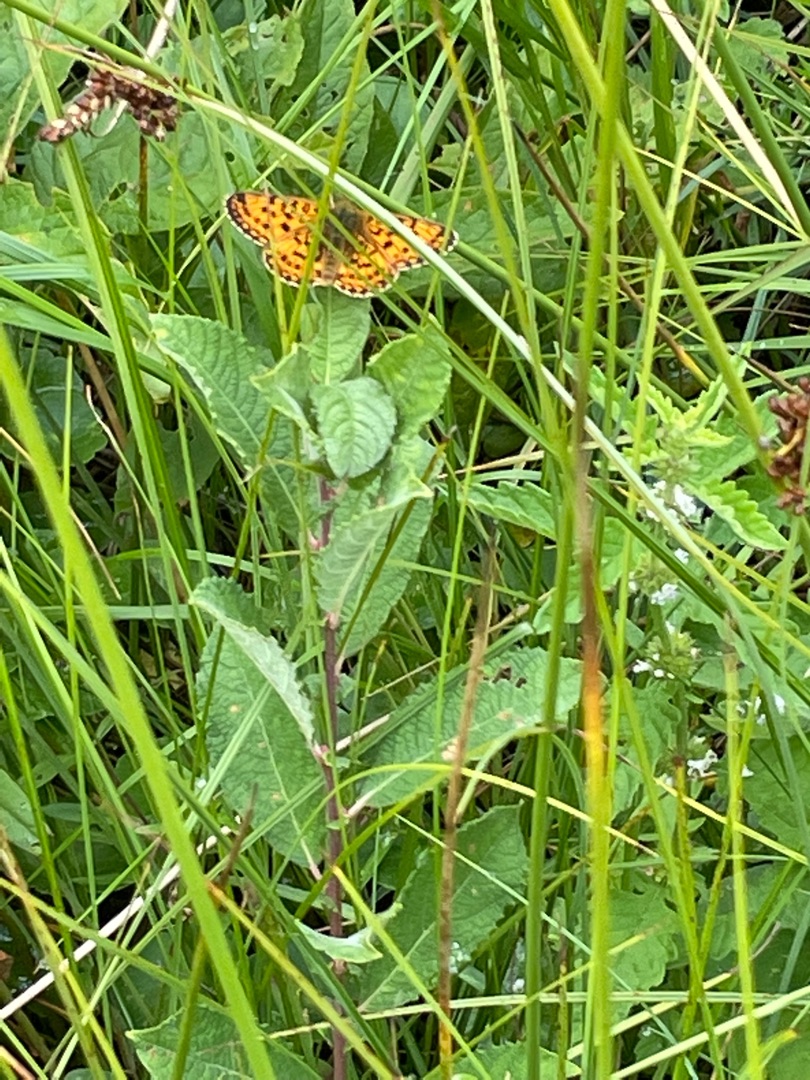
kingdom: Animalia
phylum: Arthropoda
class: Insecta
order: Lepidoptera
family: Nymphalidae
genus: Boloria
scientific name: Boloria selene
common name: Brunlig perlemorsommerfugl
